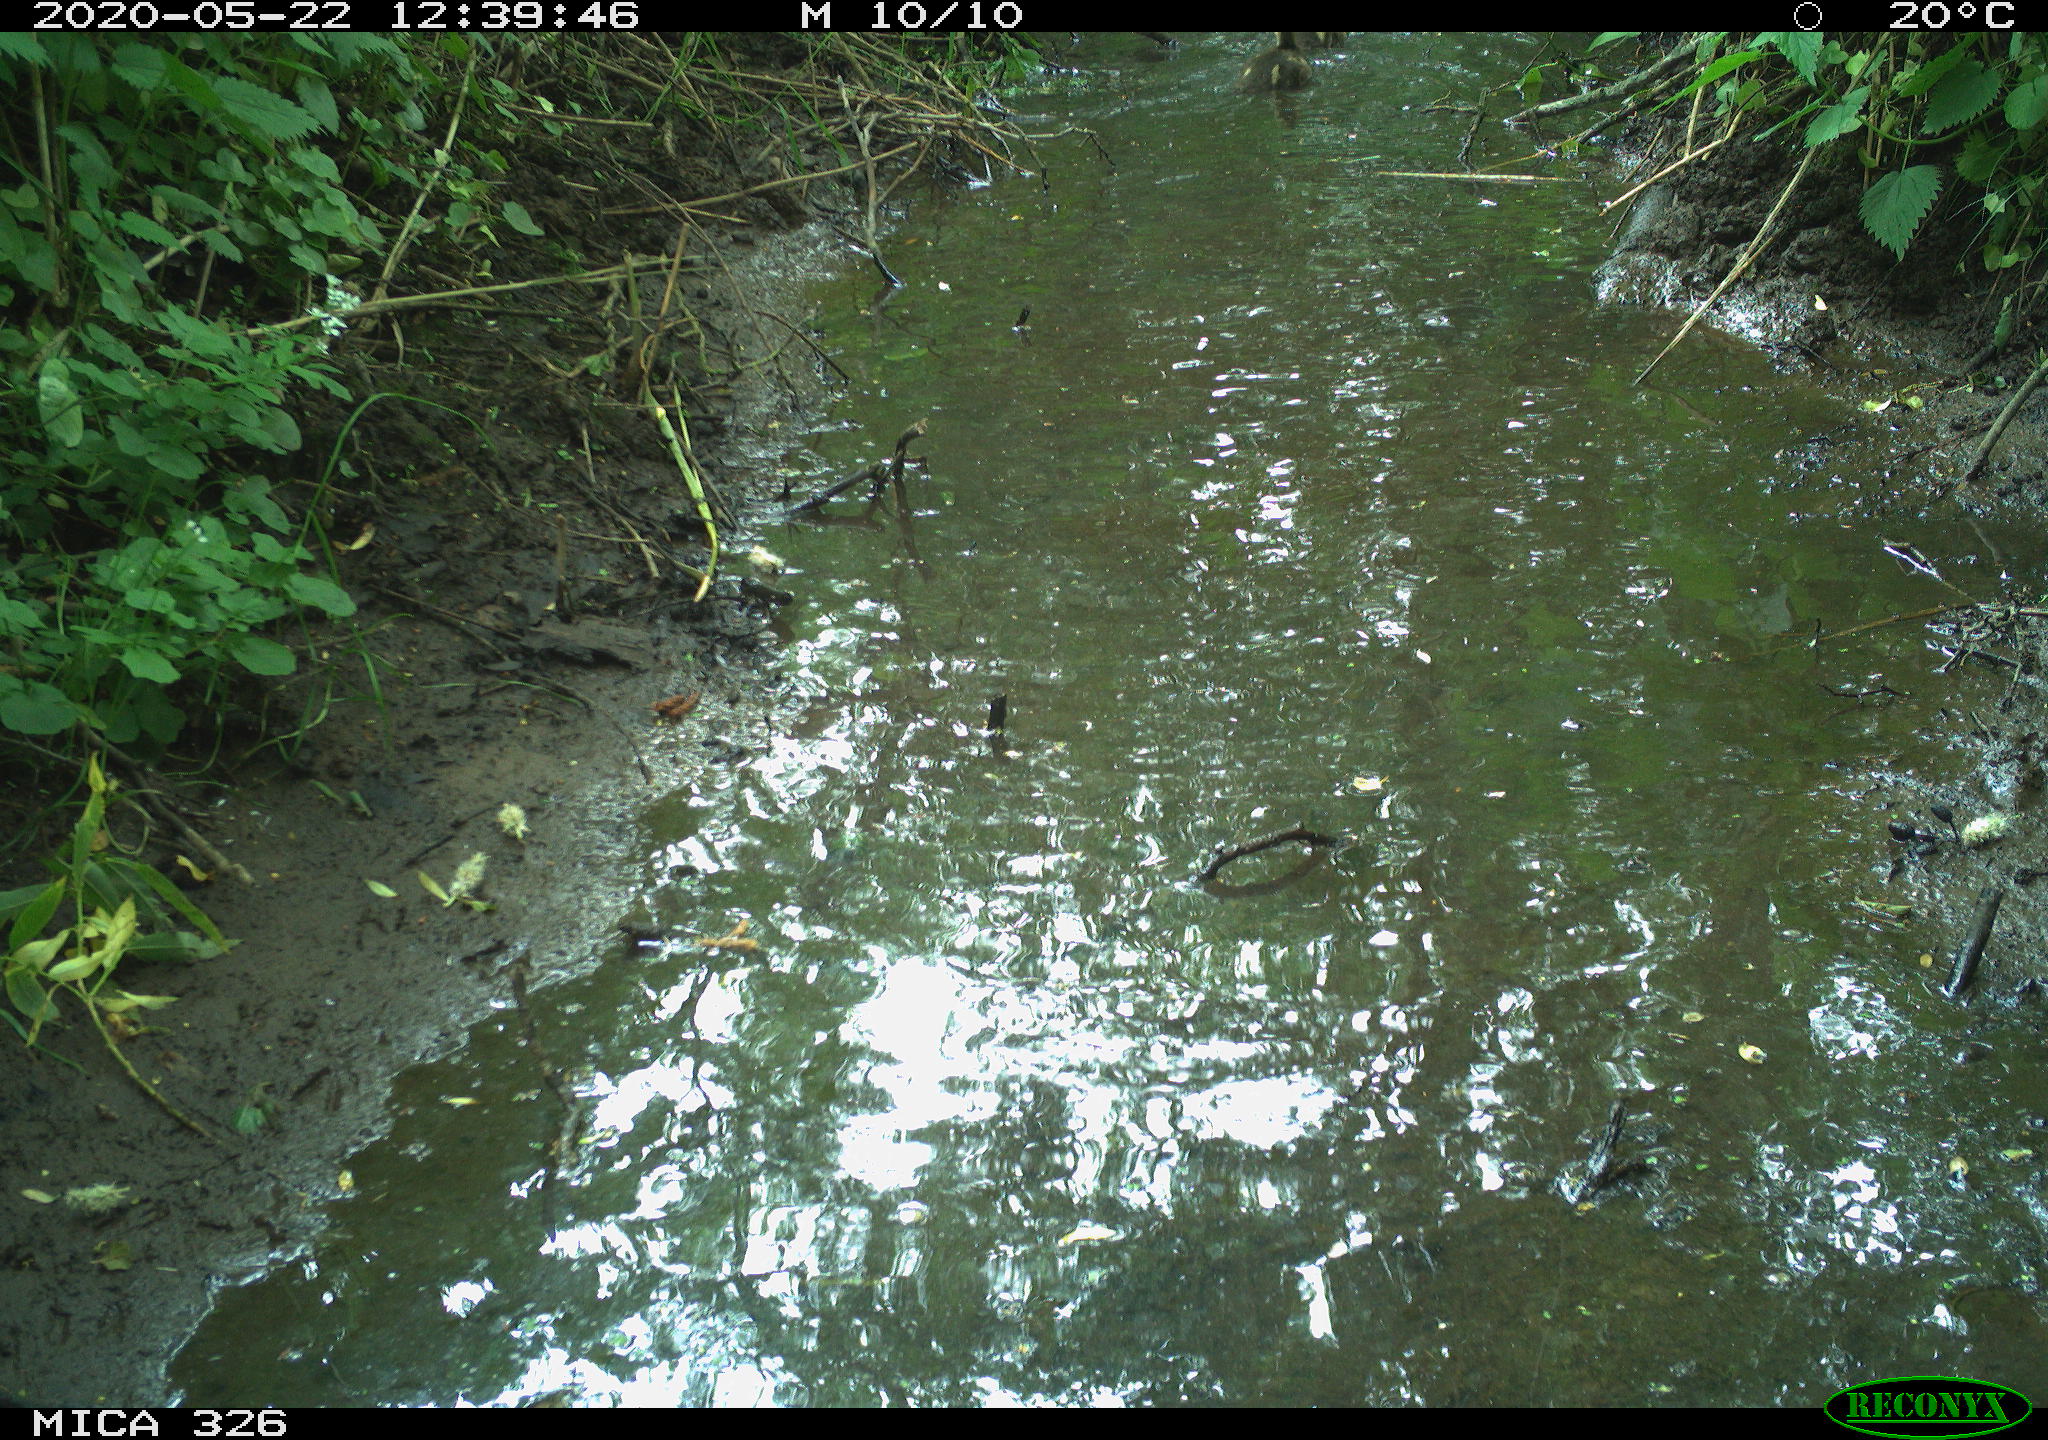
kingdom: Animalia
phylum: Chordata
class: Aves
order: Anseriformes
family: Anatidae
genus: Anas
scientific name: Anas platyrhynchos
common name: Mallard
